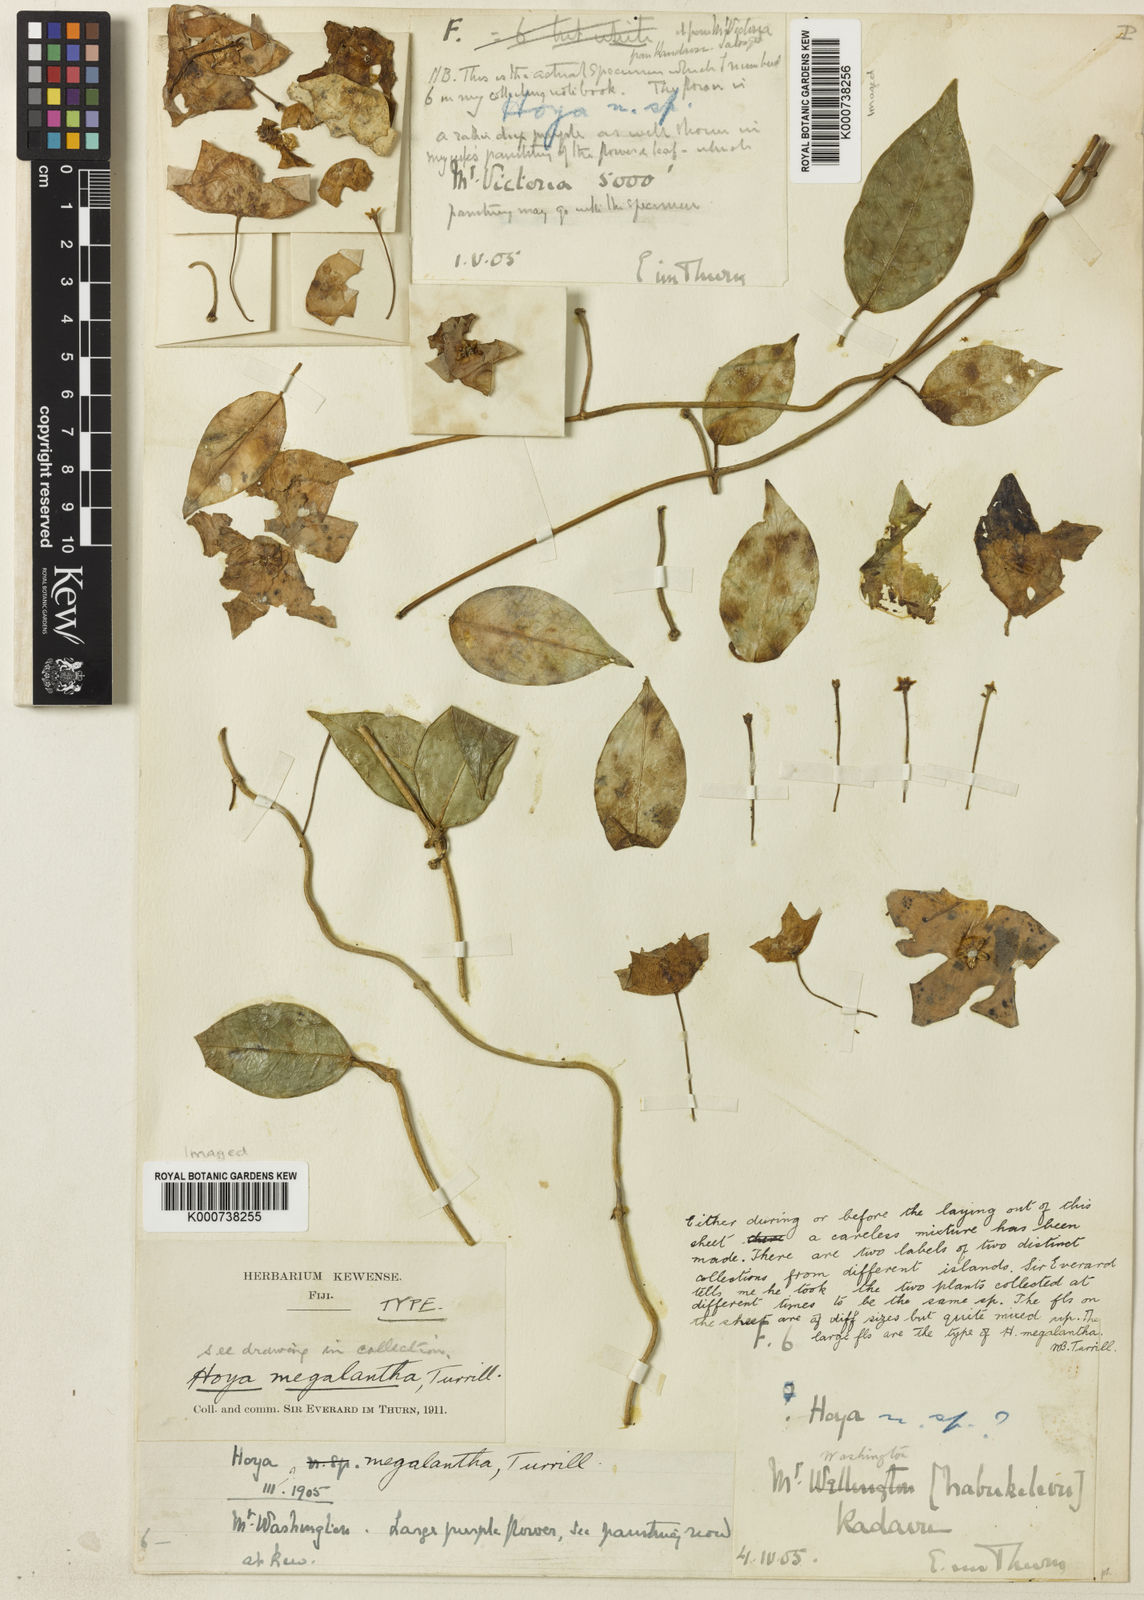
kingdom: Plantae
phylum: Tracheophyta
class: Magnoliopsida
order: Gentianales
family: Apocynaceae
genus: Hoya
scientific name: Hoya megalantha
